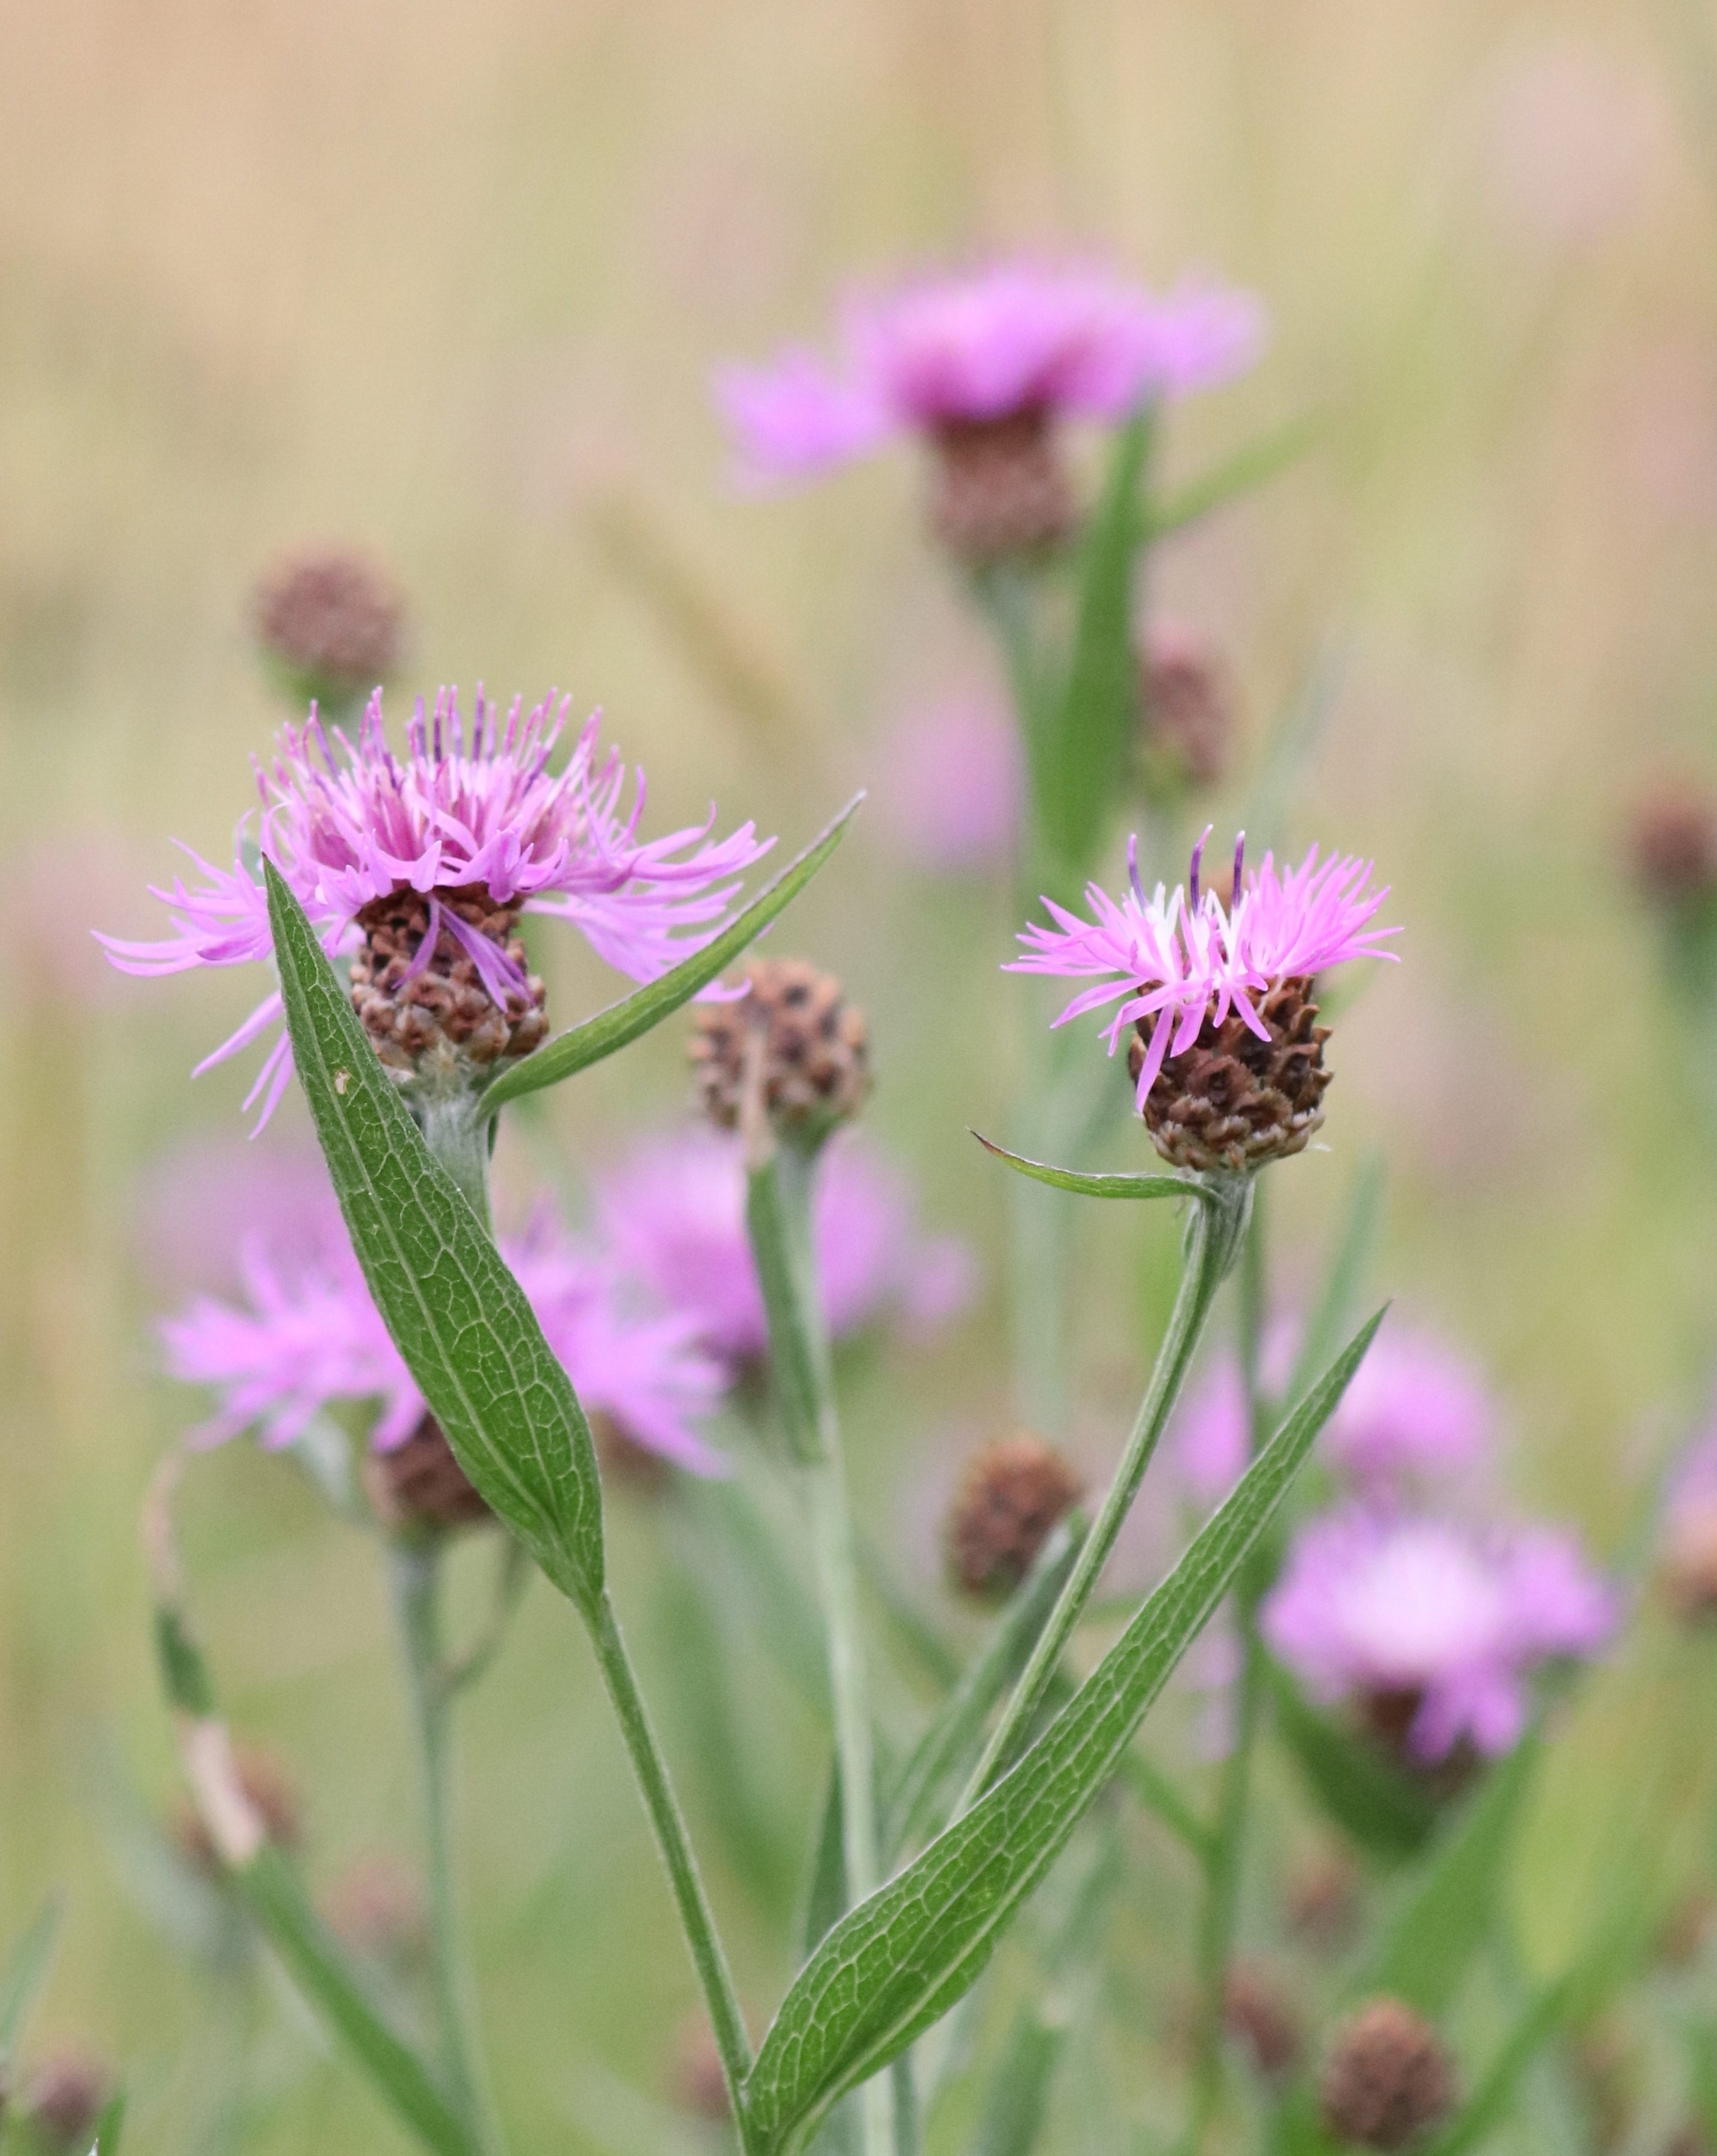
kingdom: Plantae
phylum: Tracheophyta
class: Magnoliopsida
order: Asterales
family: Asteraceae
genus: Centaurea
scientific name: Centaurea jacea
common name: Almindelig knopurt
